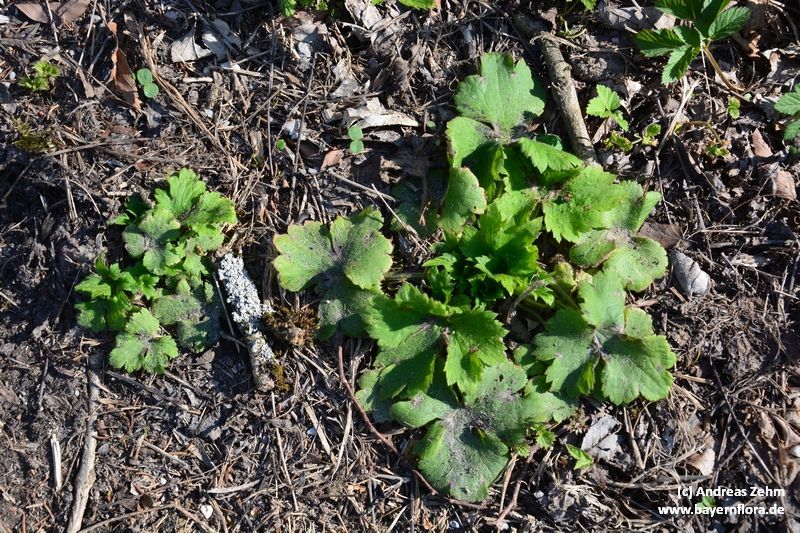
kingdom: Plantae
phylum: Tracheophyta
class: Magnoliopsida
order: Ranunculales
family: Ranunculaceae
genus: Ranunculus
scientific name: Ranunculus lanuginosus
